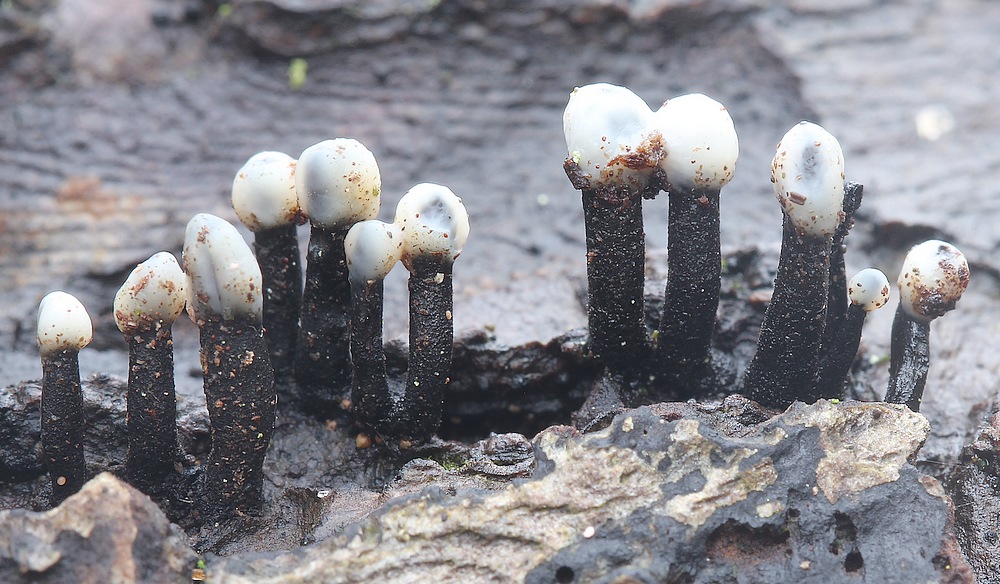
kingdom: Fungi
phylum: Ascomycota
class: Leotiomycetes
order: Helotiales
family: Bulgariaceae
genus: Holwaya
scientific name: Holwaya mucida
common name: lindeskive
